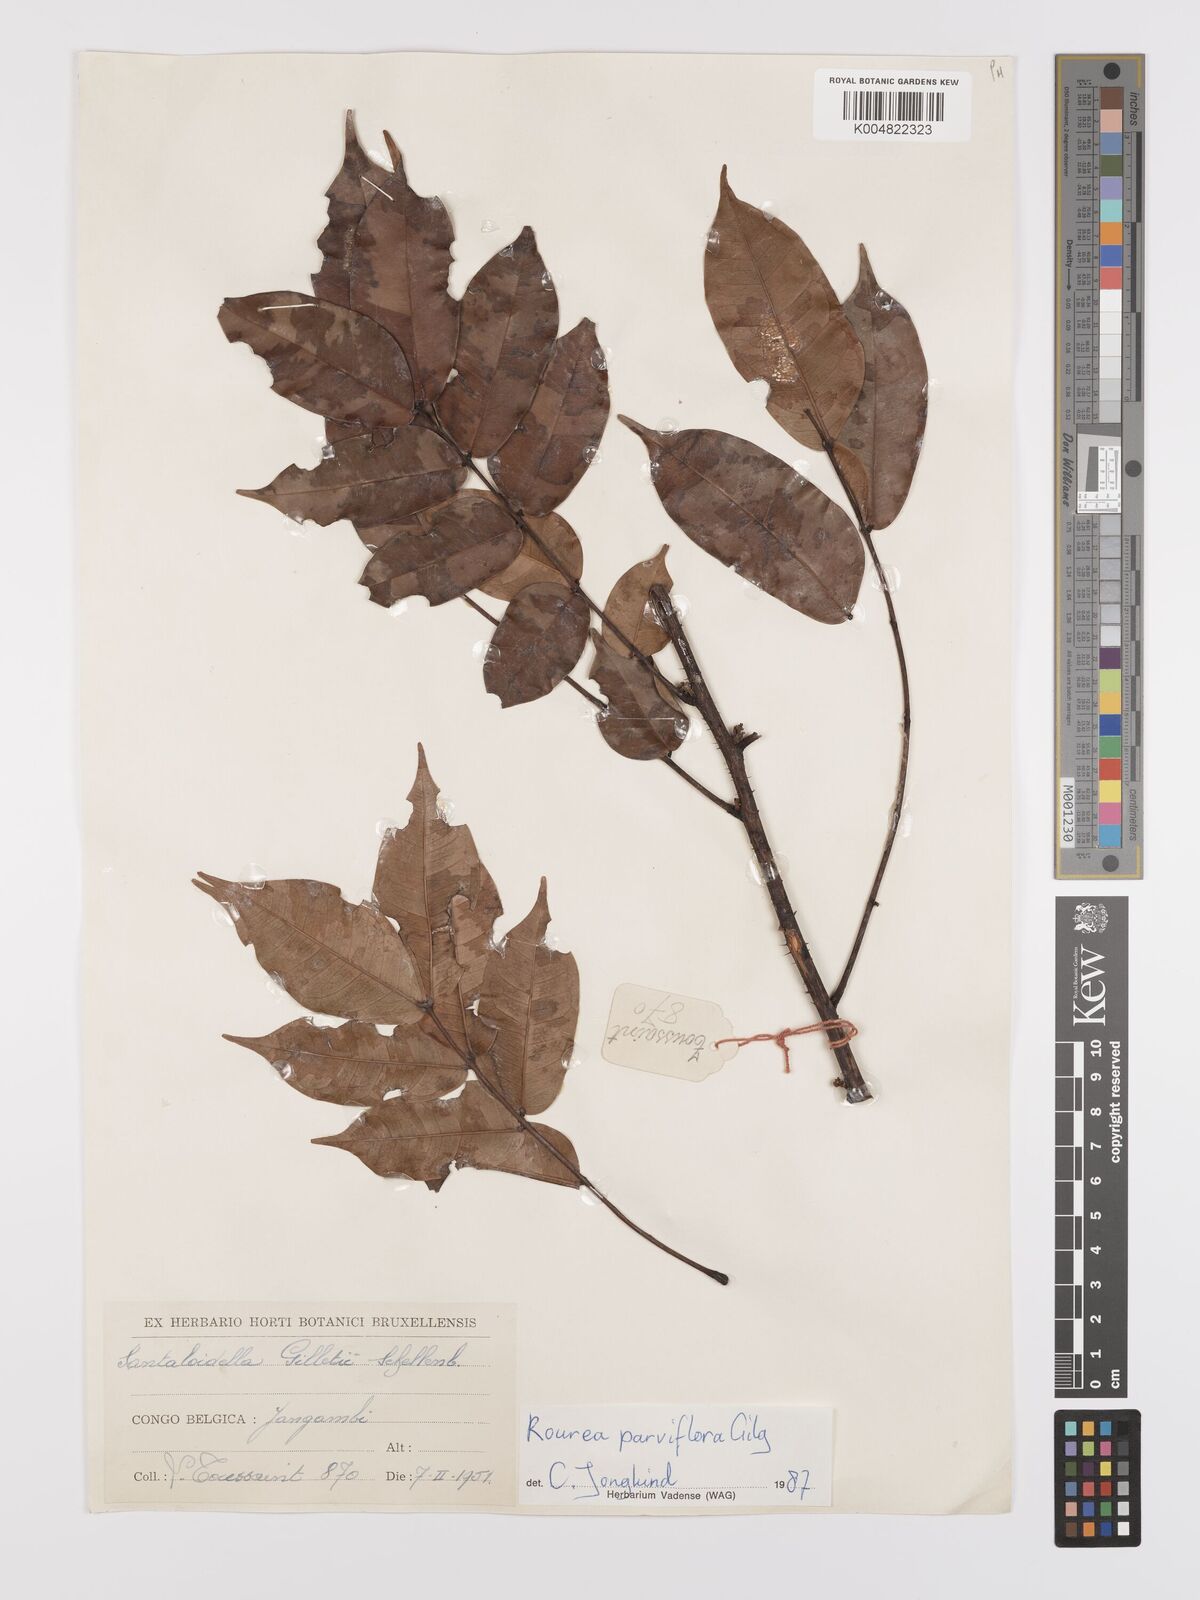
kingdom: Plantae
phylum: Tracheophyta
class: Magnoliopsida
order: Oxalidales
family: Connaraceae
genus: Rourea
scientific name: Rourea
